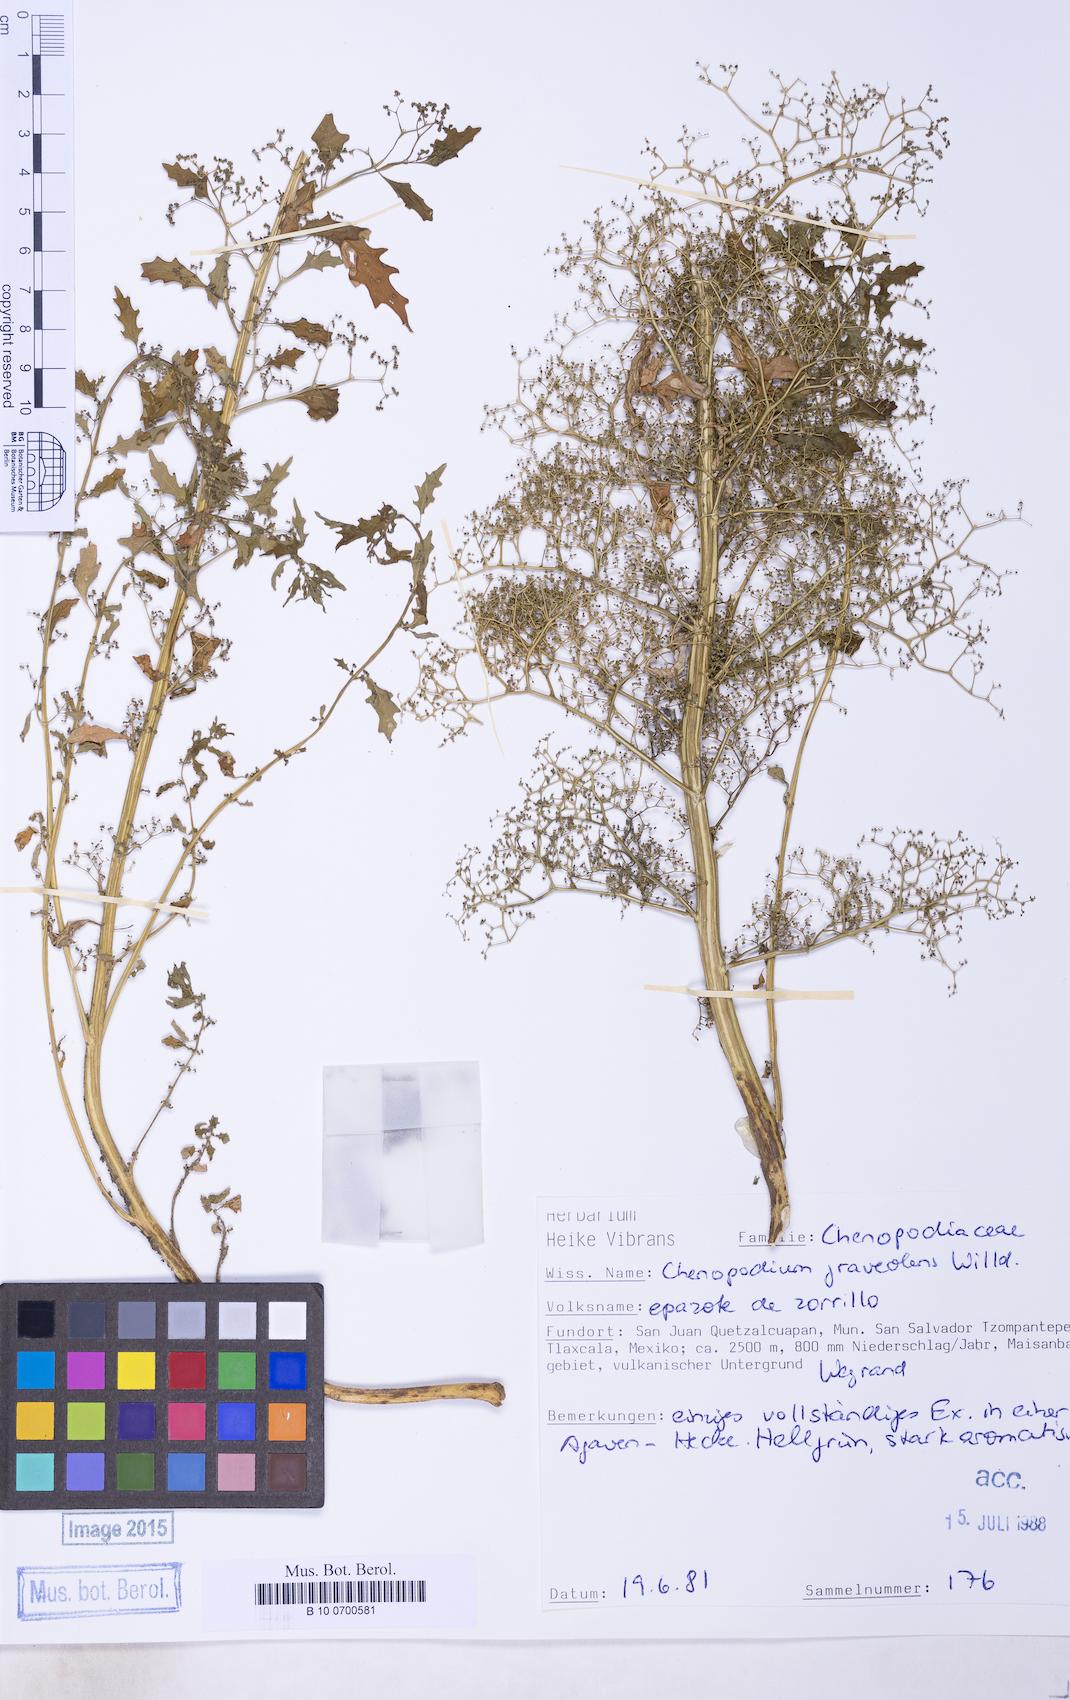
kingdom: Plantae
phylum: Tracheophyta
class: Magnoliopsida
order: Caryophyllales
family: Amaranthaceae
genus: Dysphania
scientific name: Dysphania incisa
